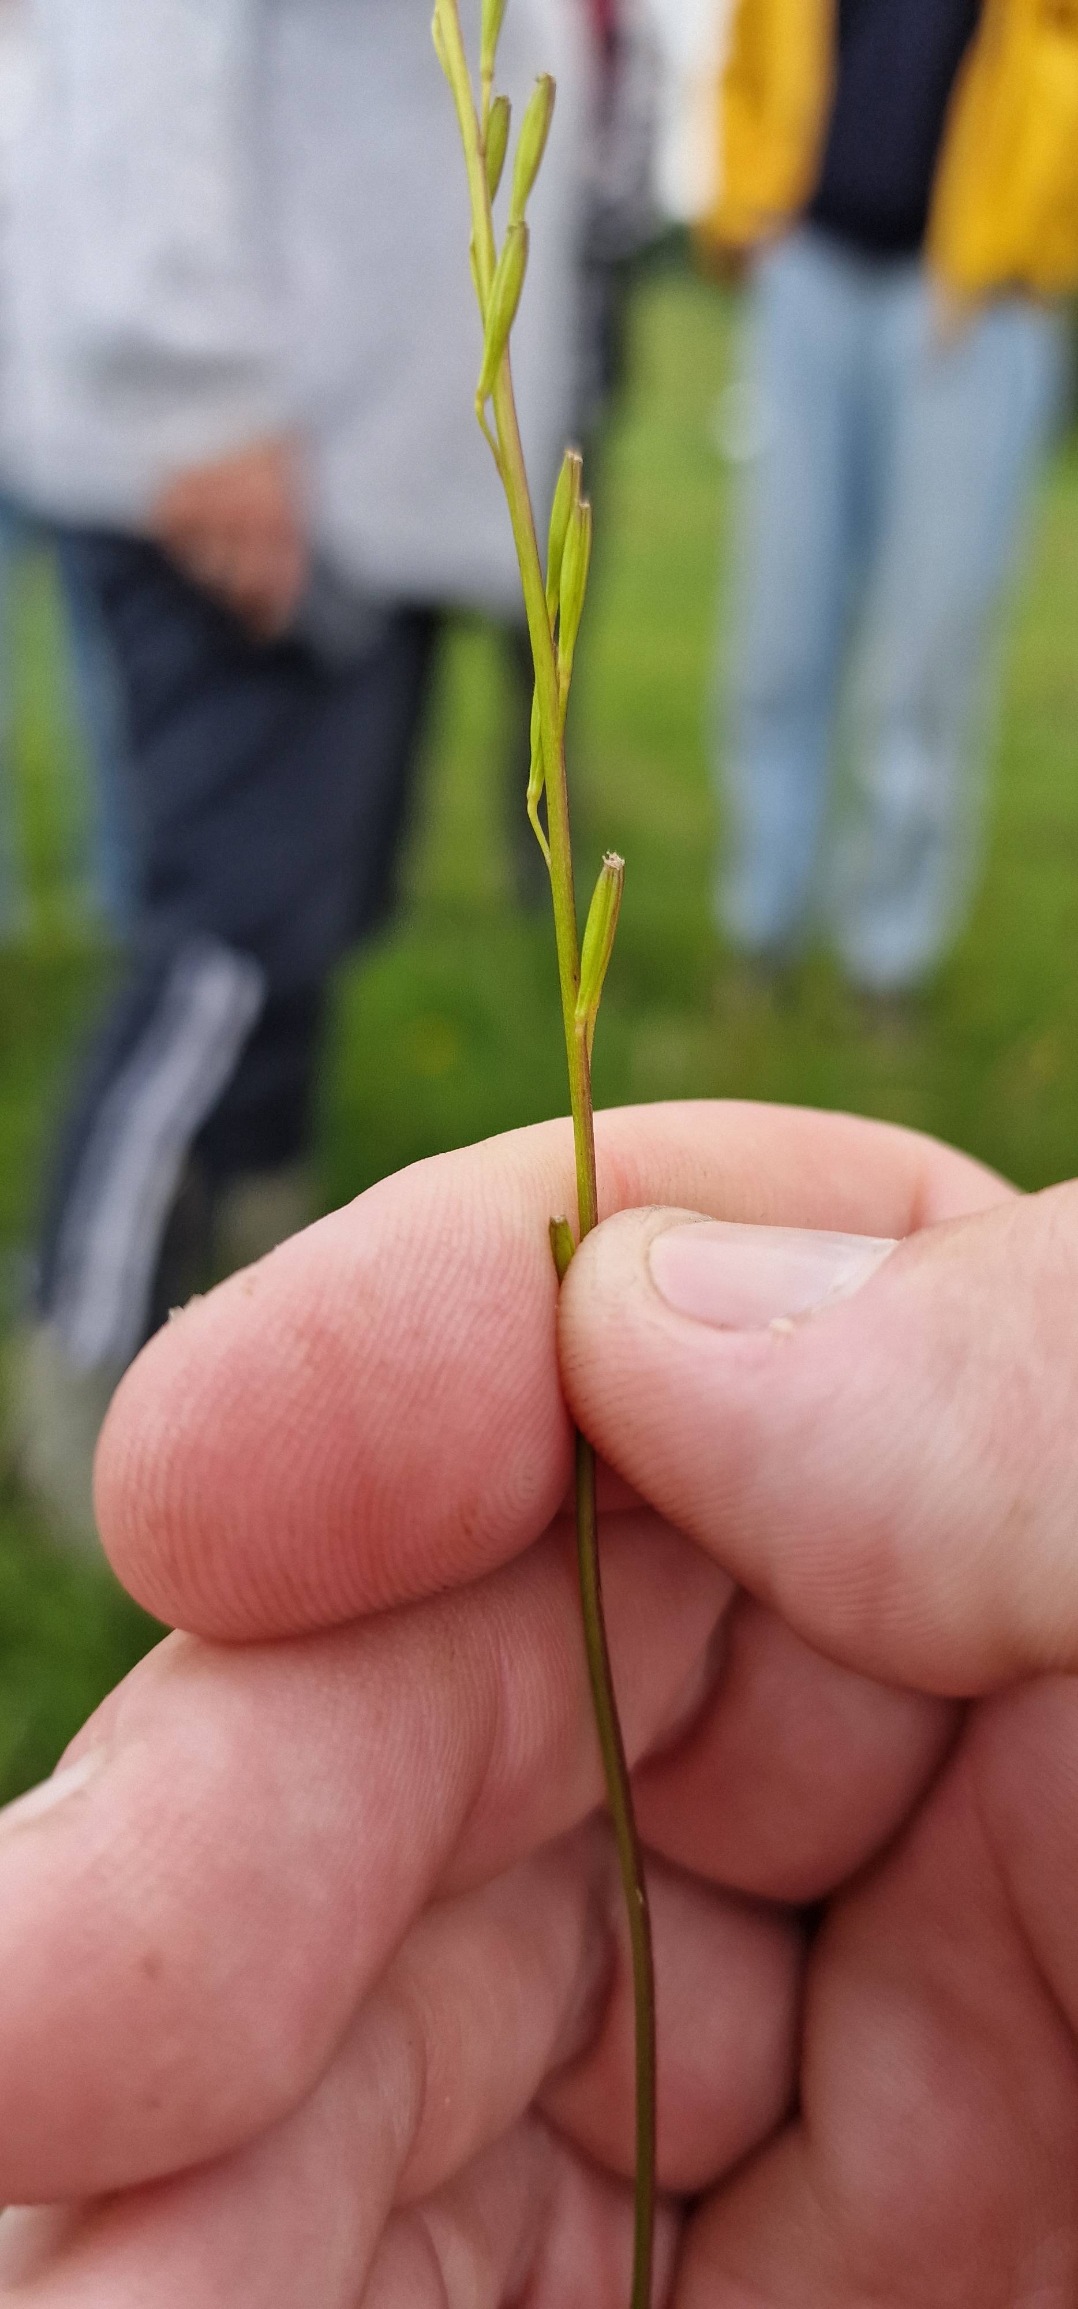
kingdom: Plantae
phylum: Tracheophyta
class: Liliopsida
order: Alismatales
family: Juncaginaceae
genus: Triglochin
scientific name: Triglochin palustris
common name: Kær-trehage
